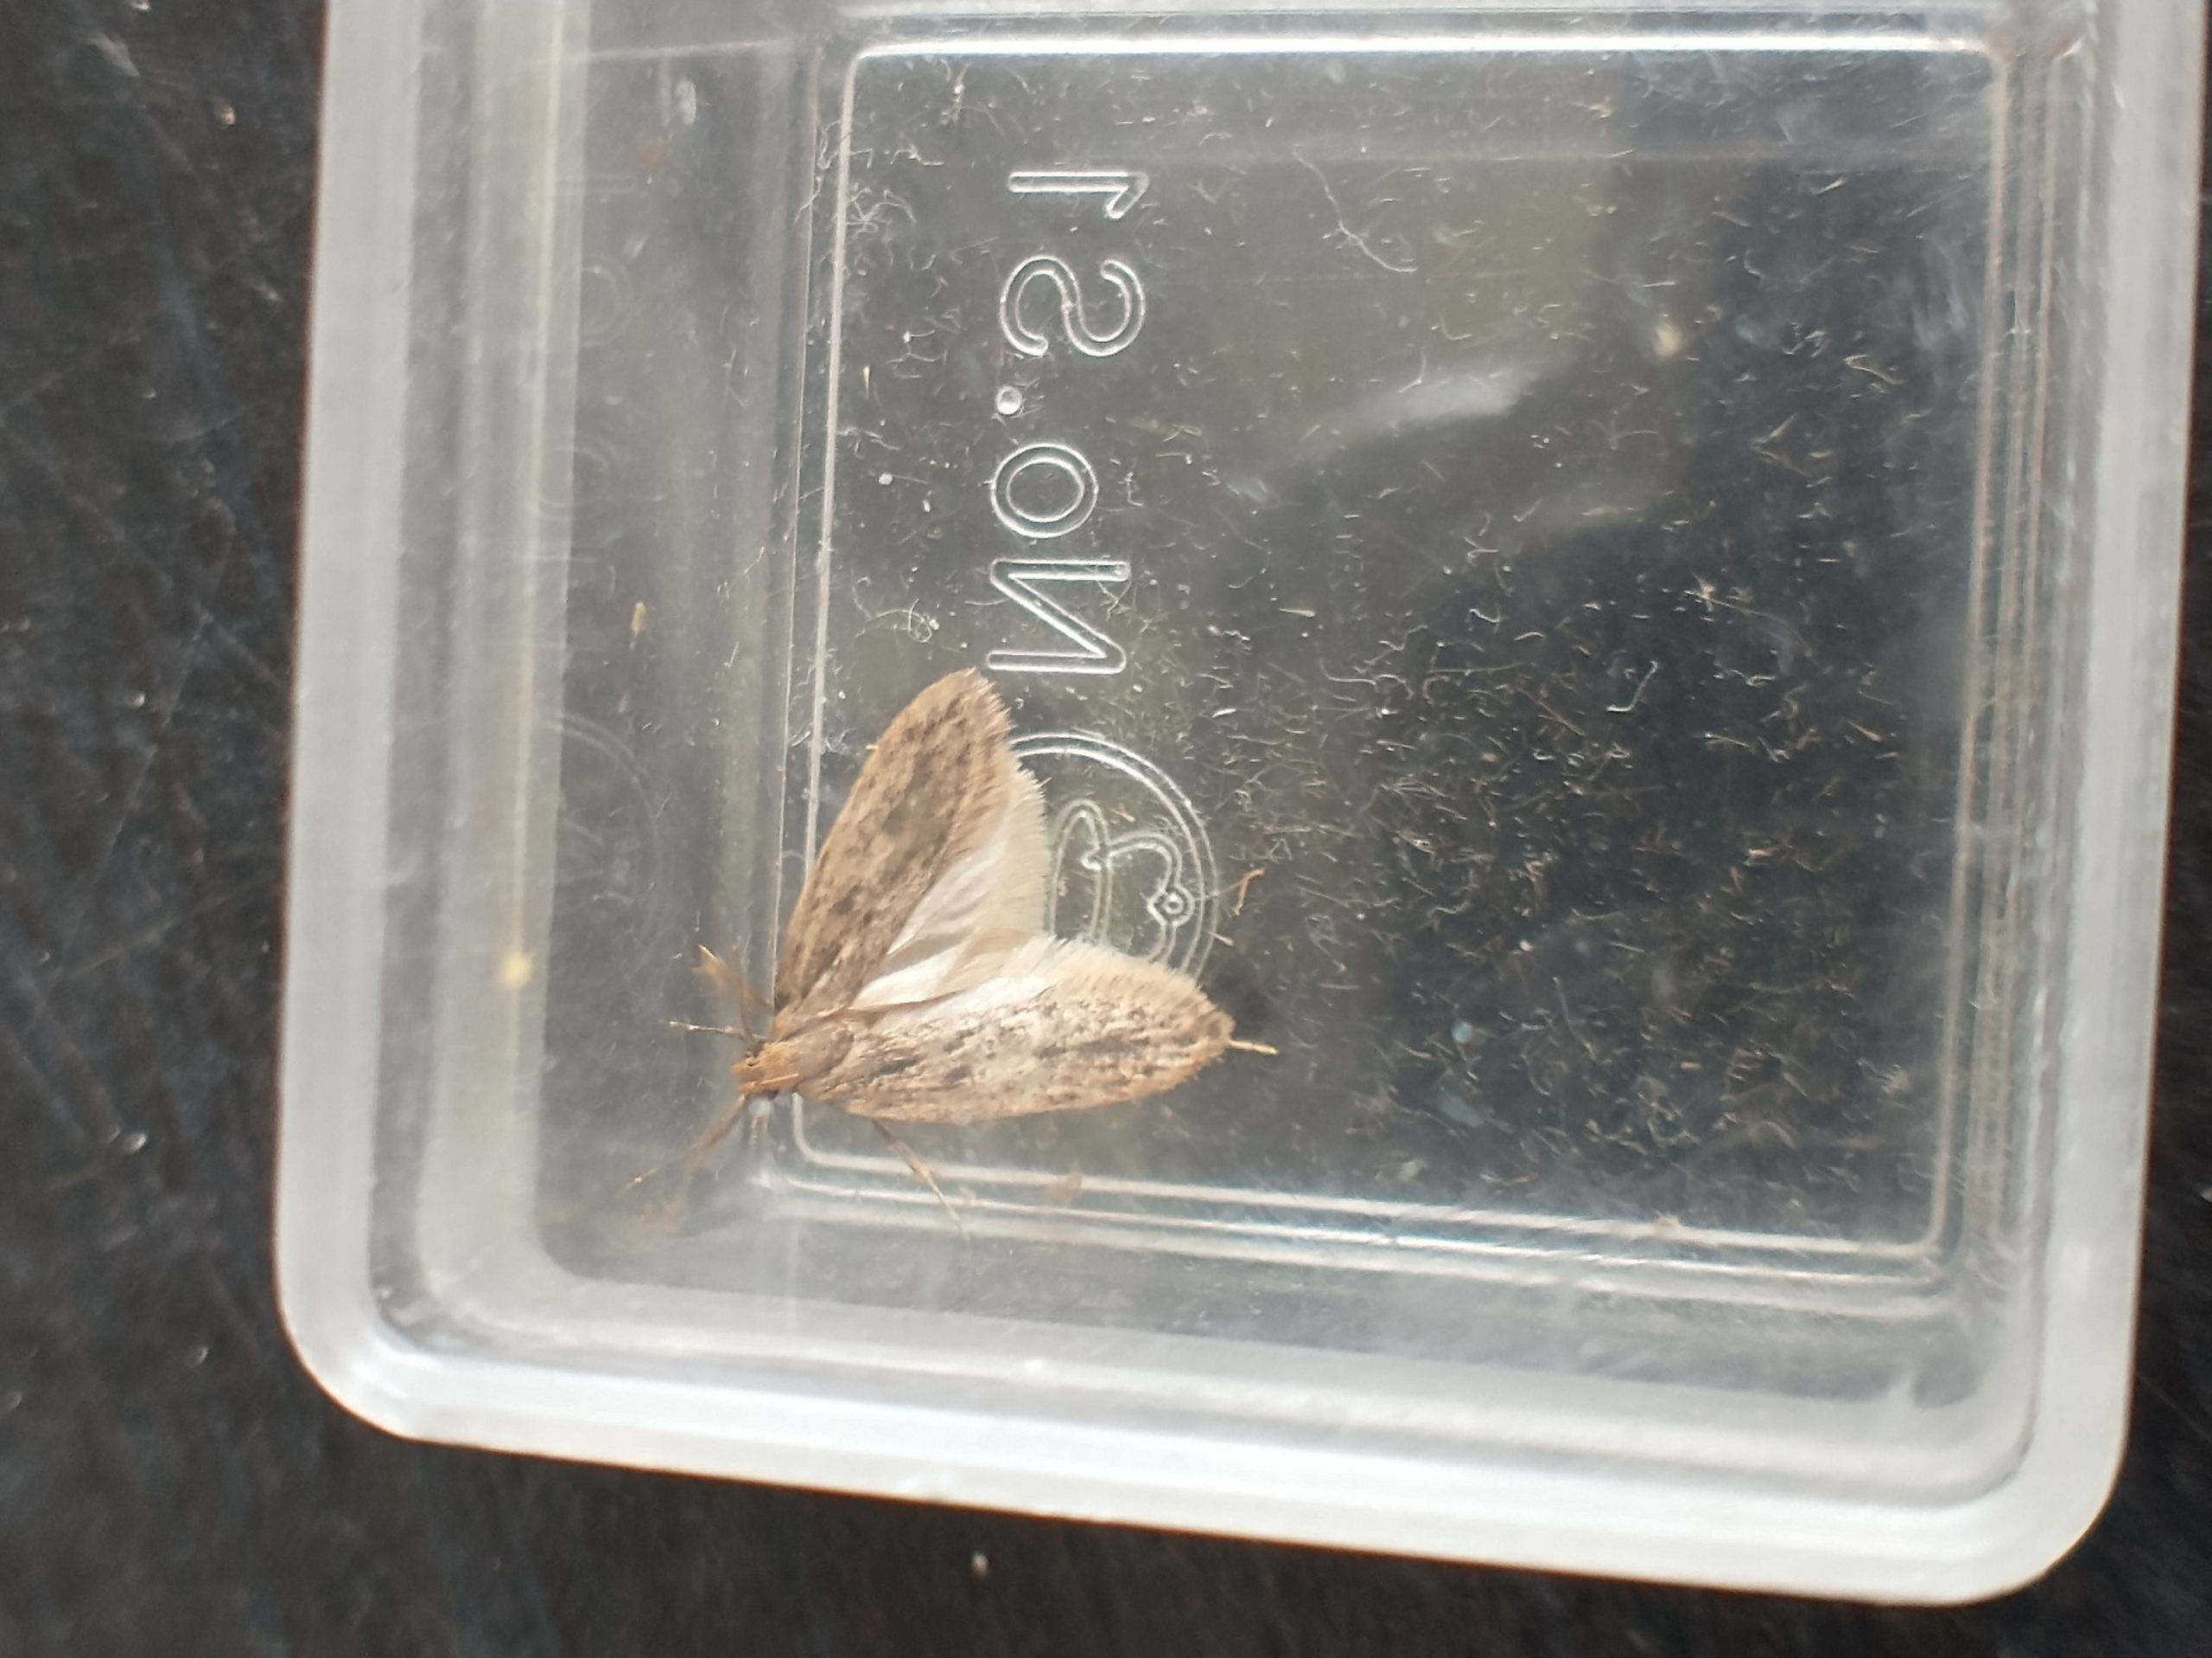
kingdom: Animalia
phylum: Arthropoda
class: Insecta
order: Lepidoptera
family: Oecophoridae
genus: Hofmannophila
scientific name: Hofmannophila pseudospretella
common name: Frømøl
